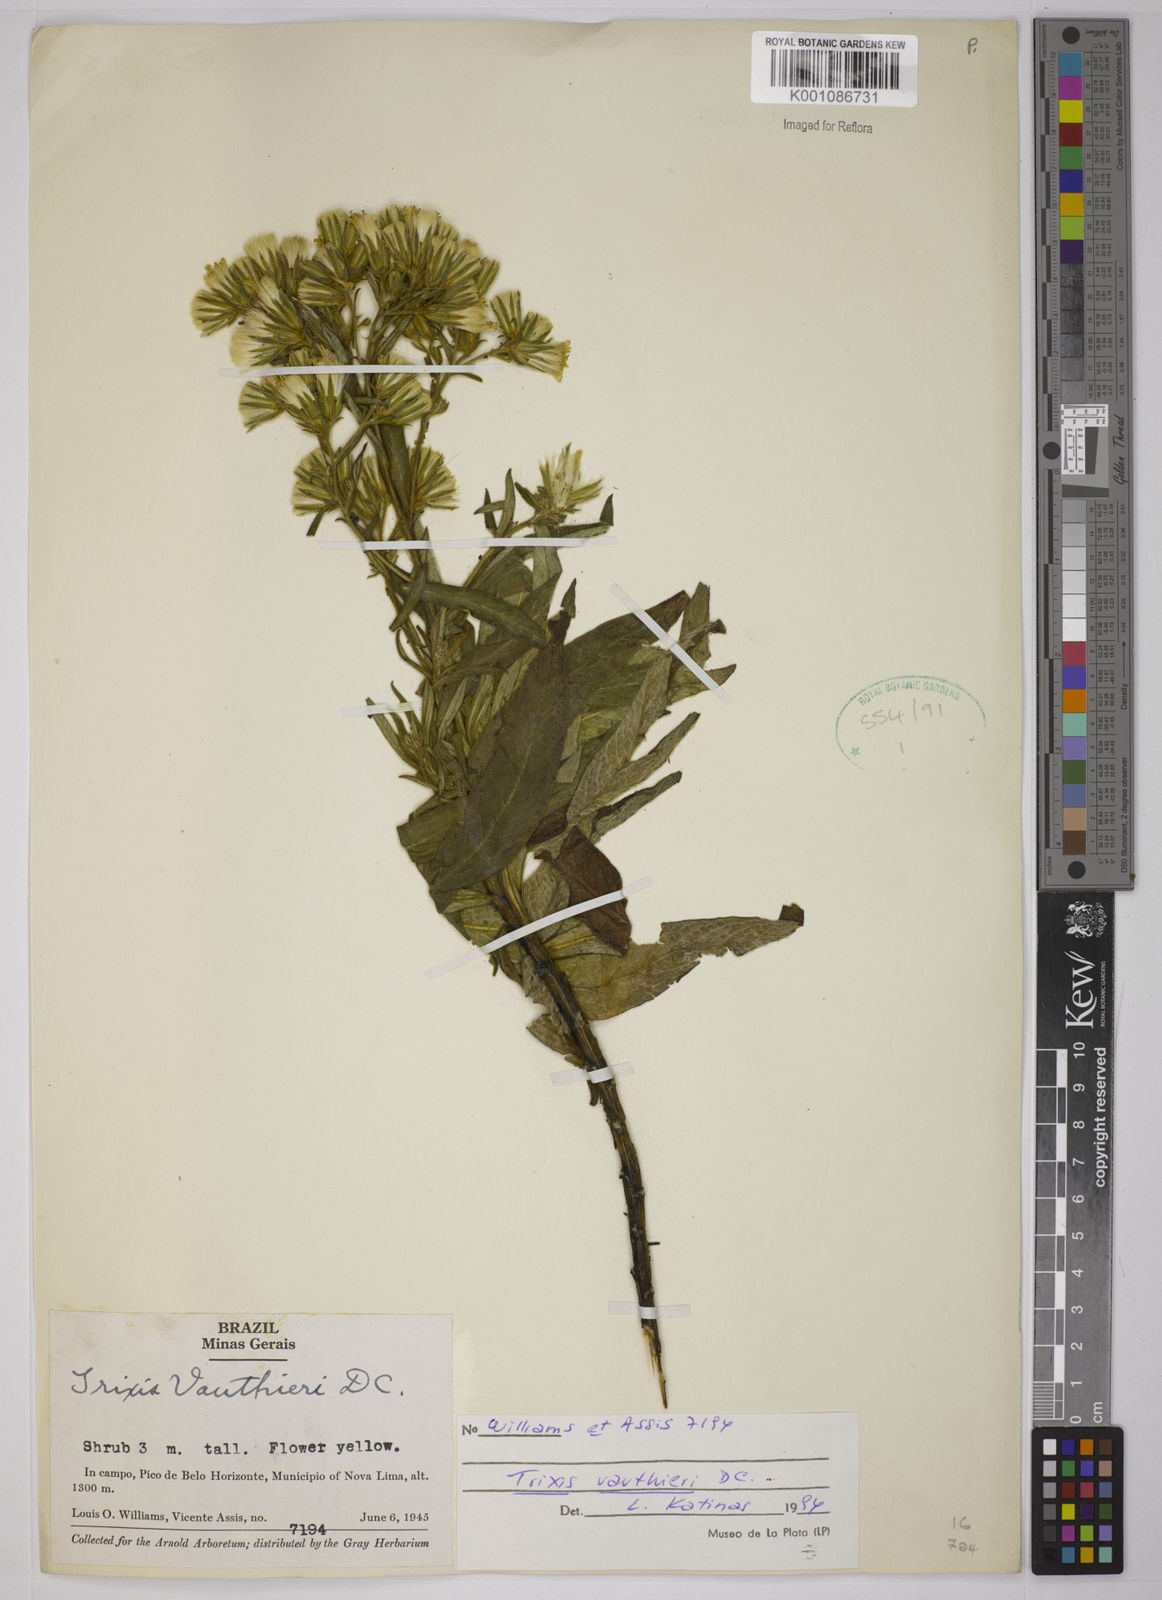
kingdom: Plantae
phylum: Tracheophyta
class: Magnoliopsida
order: Asterales
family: Asteraceae
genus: Trixis
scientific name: Trixis vauthieri
